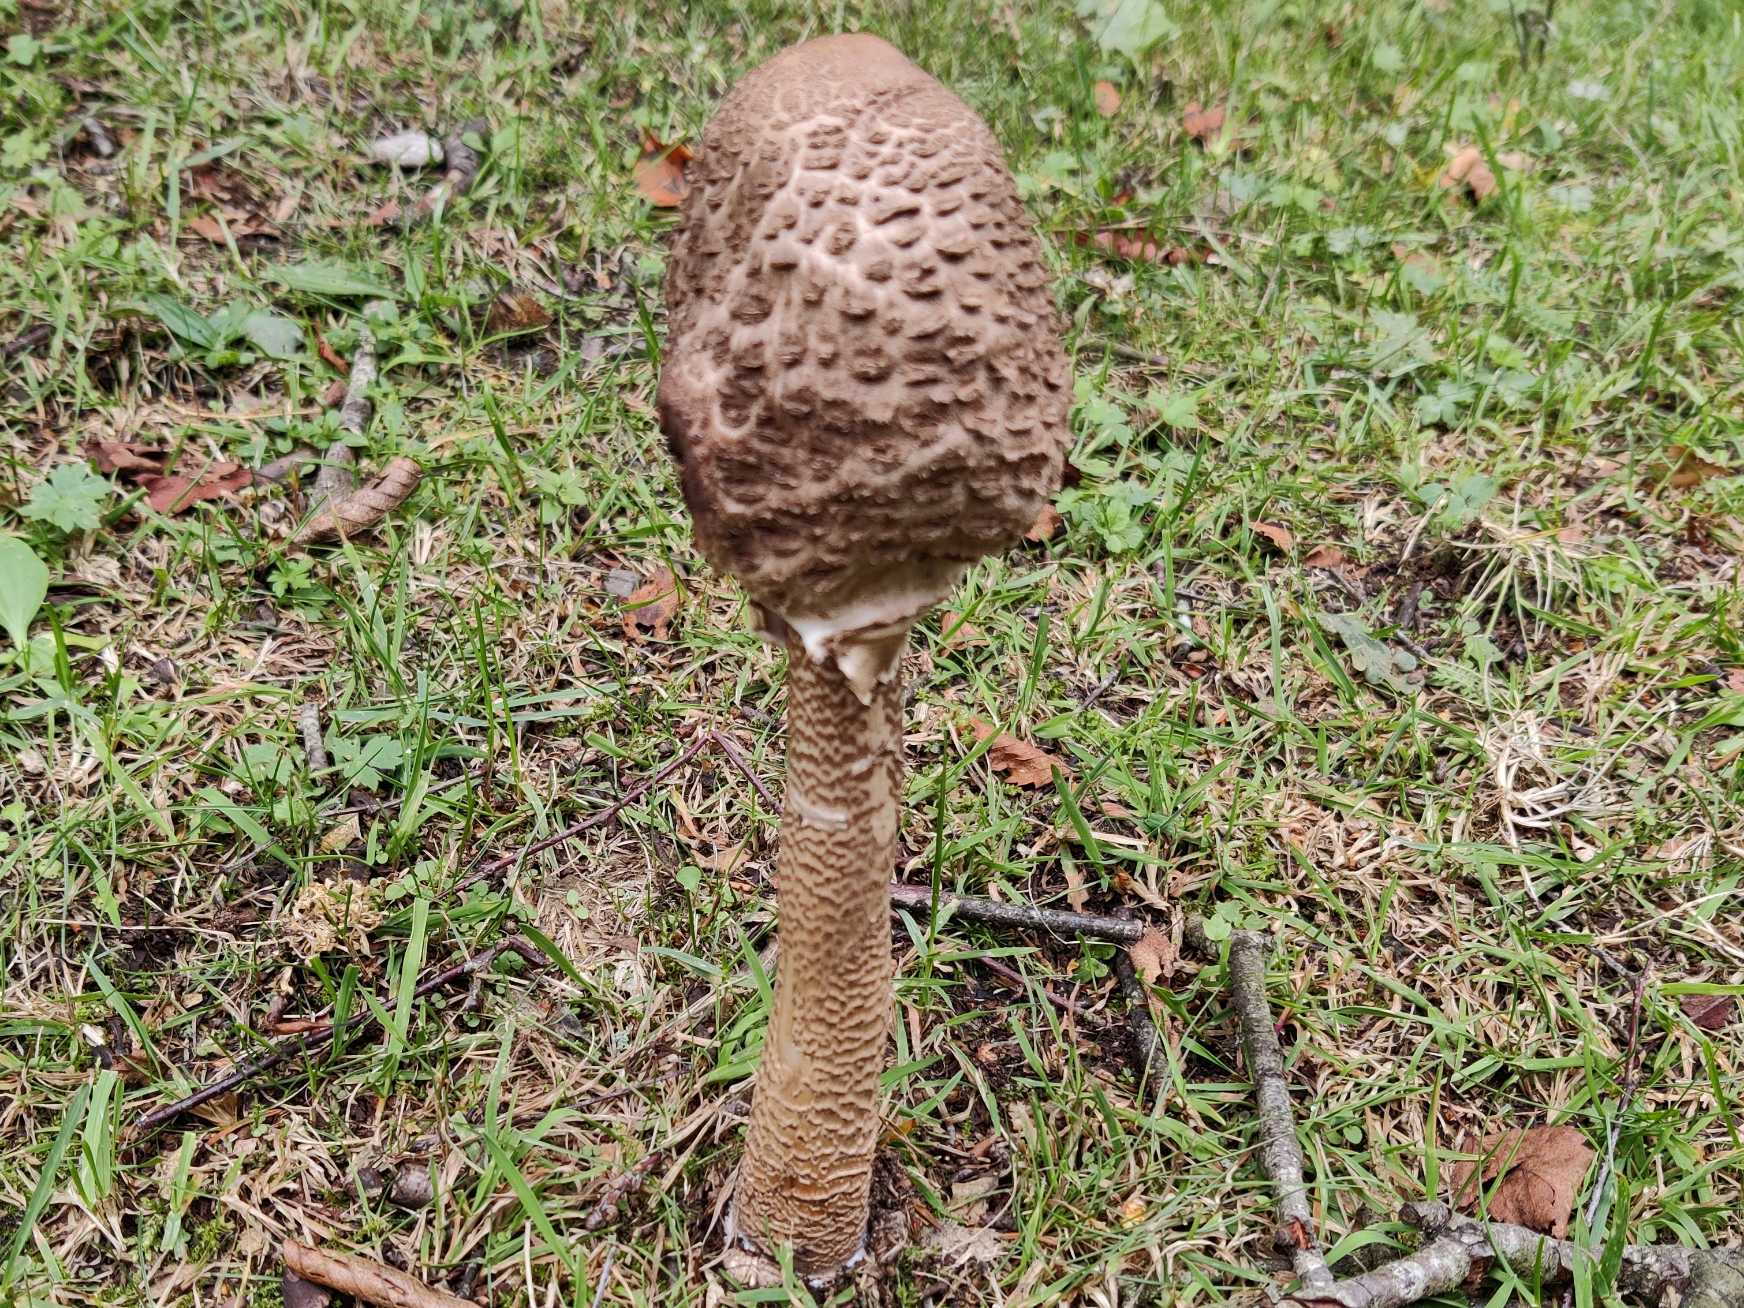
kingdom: Fungi
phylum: Basidiomycota
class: Agaricomycetes
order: Agaricales
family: Agaricaceae
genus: Macrolepiota
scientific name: Macrolepiota procera
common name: Stor kæmpeparasolhat
